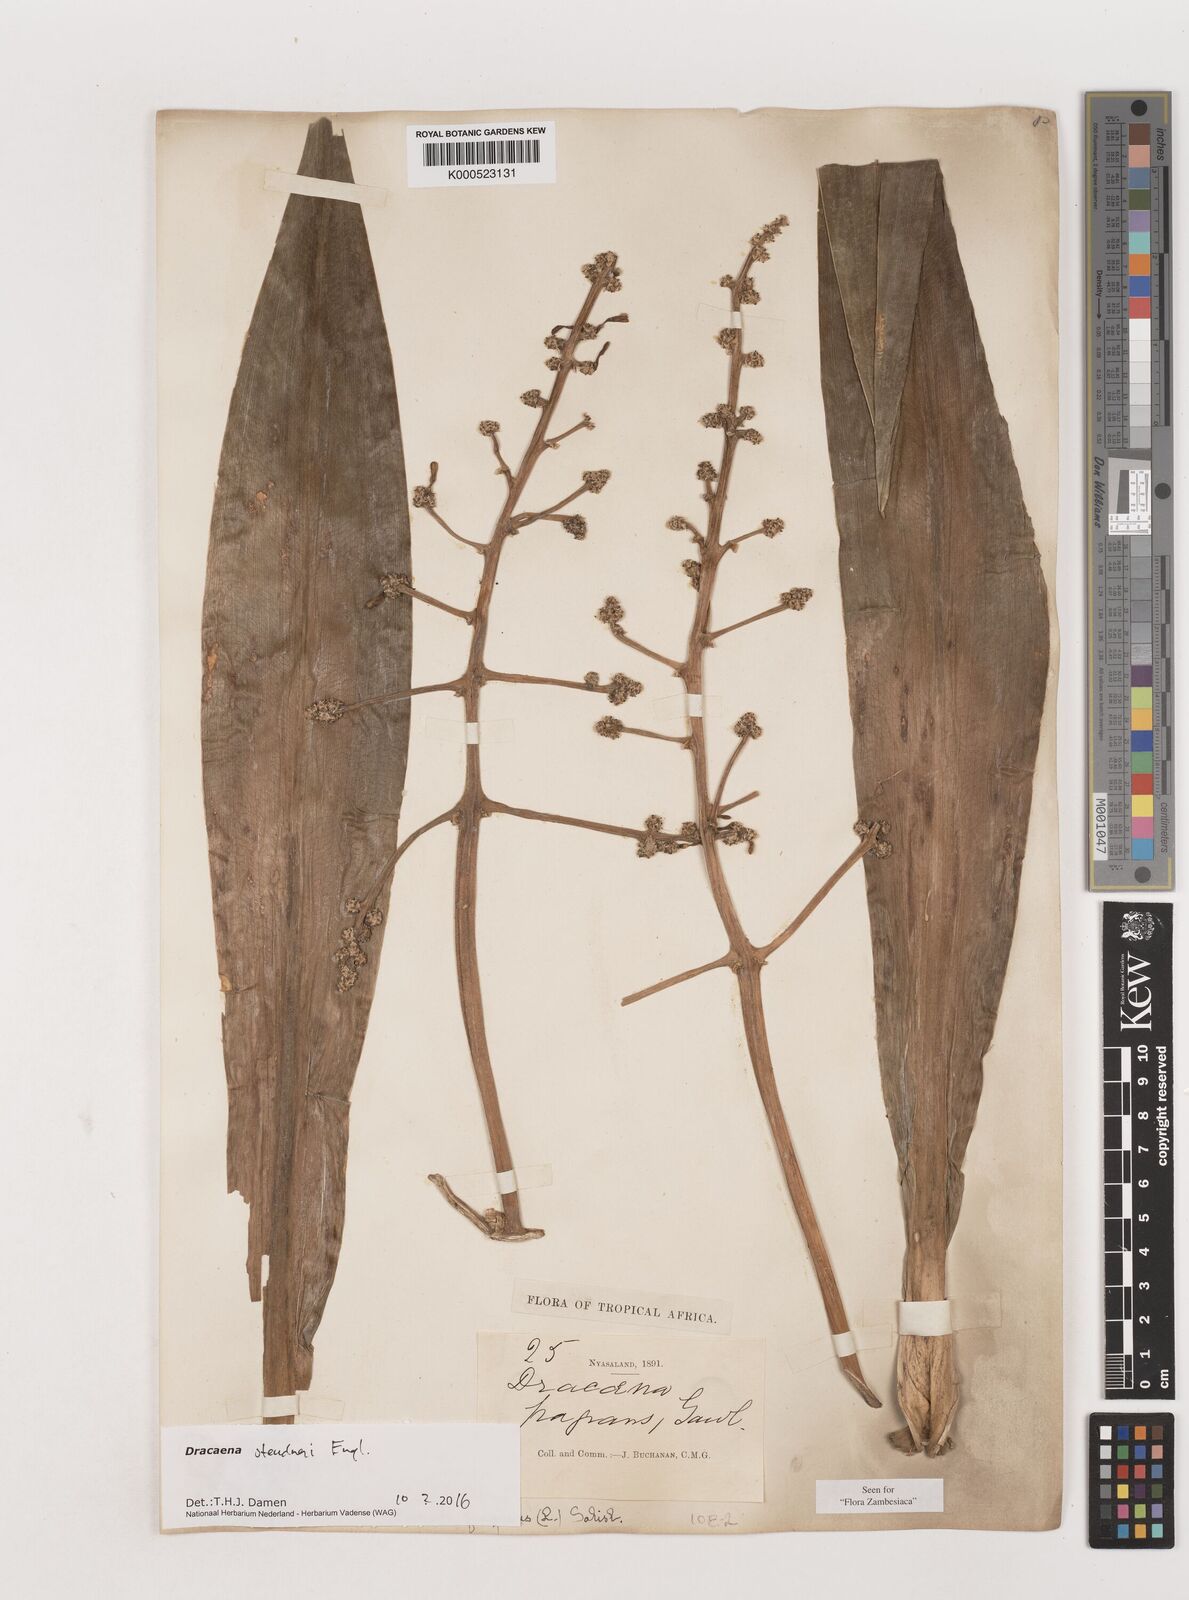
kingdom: Plantae
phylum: Tracheophyta
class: Liliopsida
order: Asparagales
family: Asparagaceae
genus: Dracaena
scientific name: Dracaena steudneri
